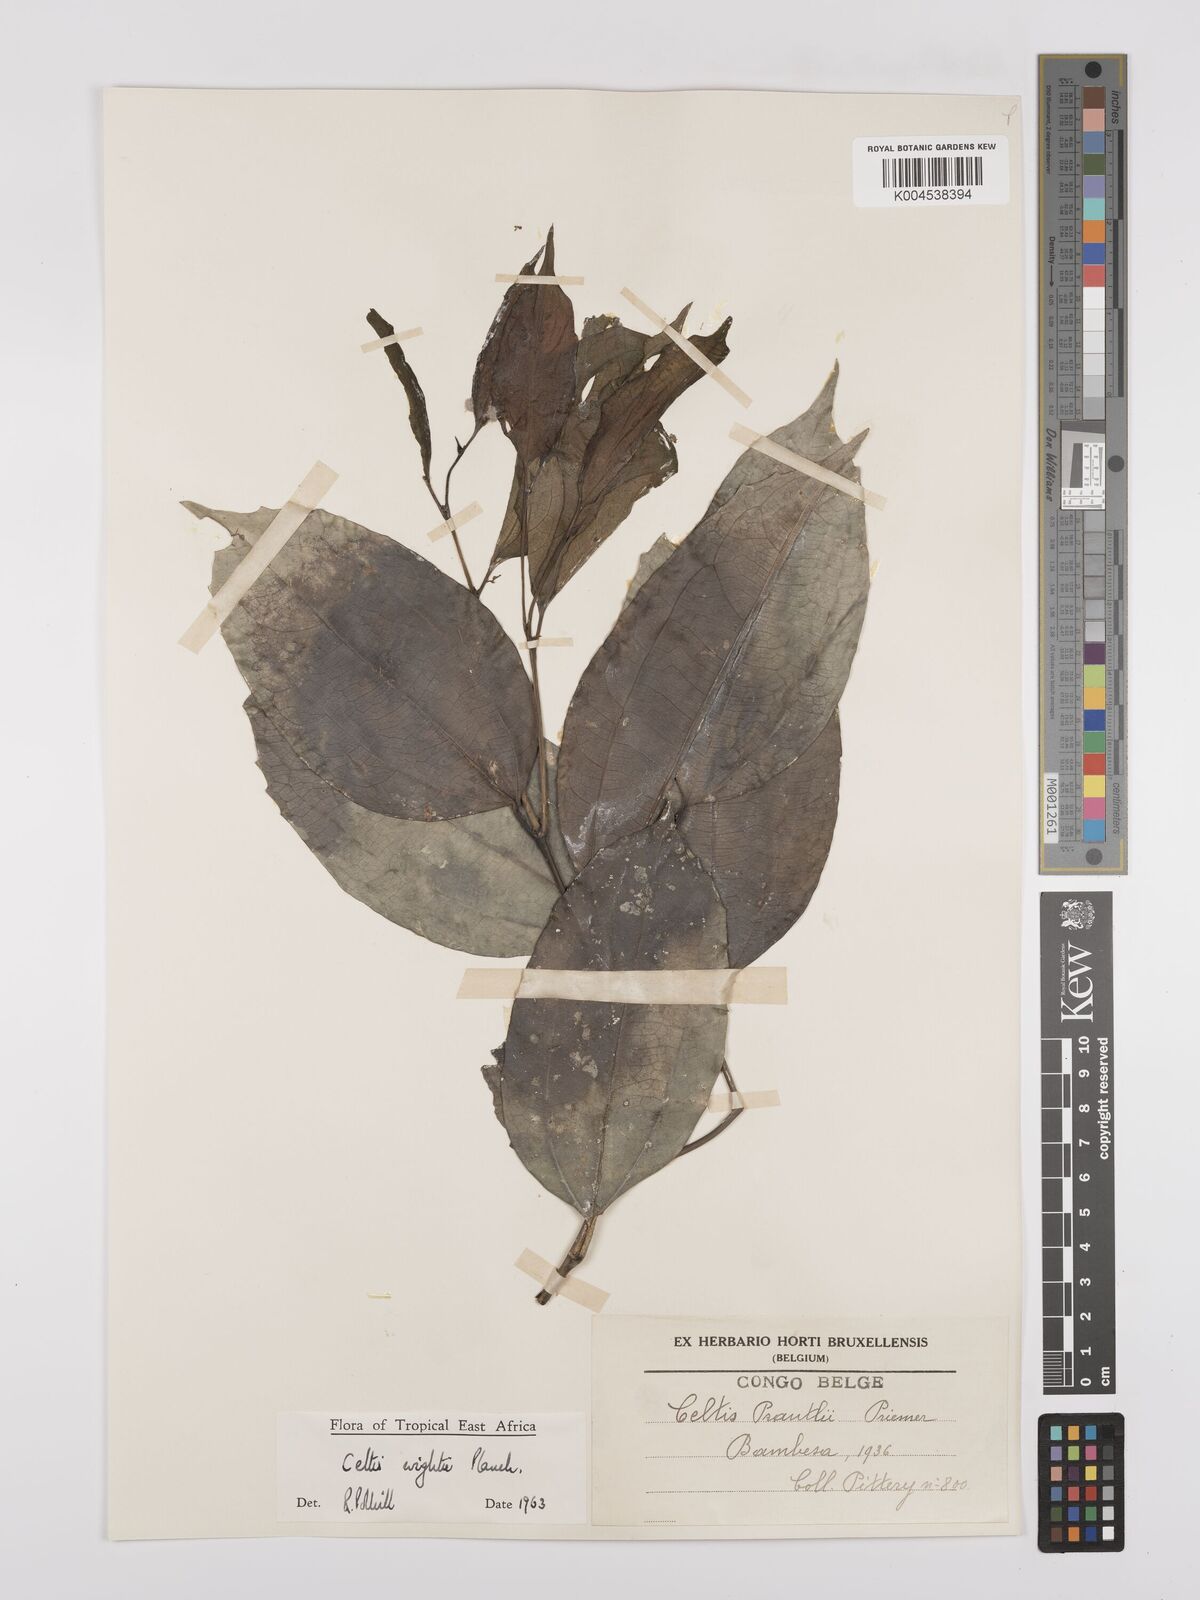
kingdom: Plantae
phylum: Tracheophyta
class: Magnoliopsida
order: Rosales
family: Cannabaceae
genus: Celtis
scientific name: Celtis philippensis
